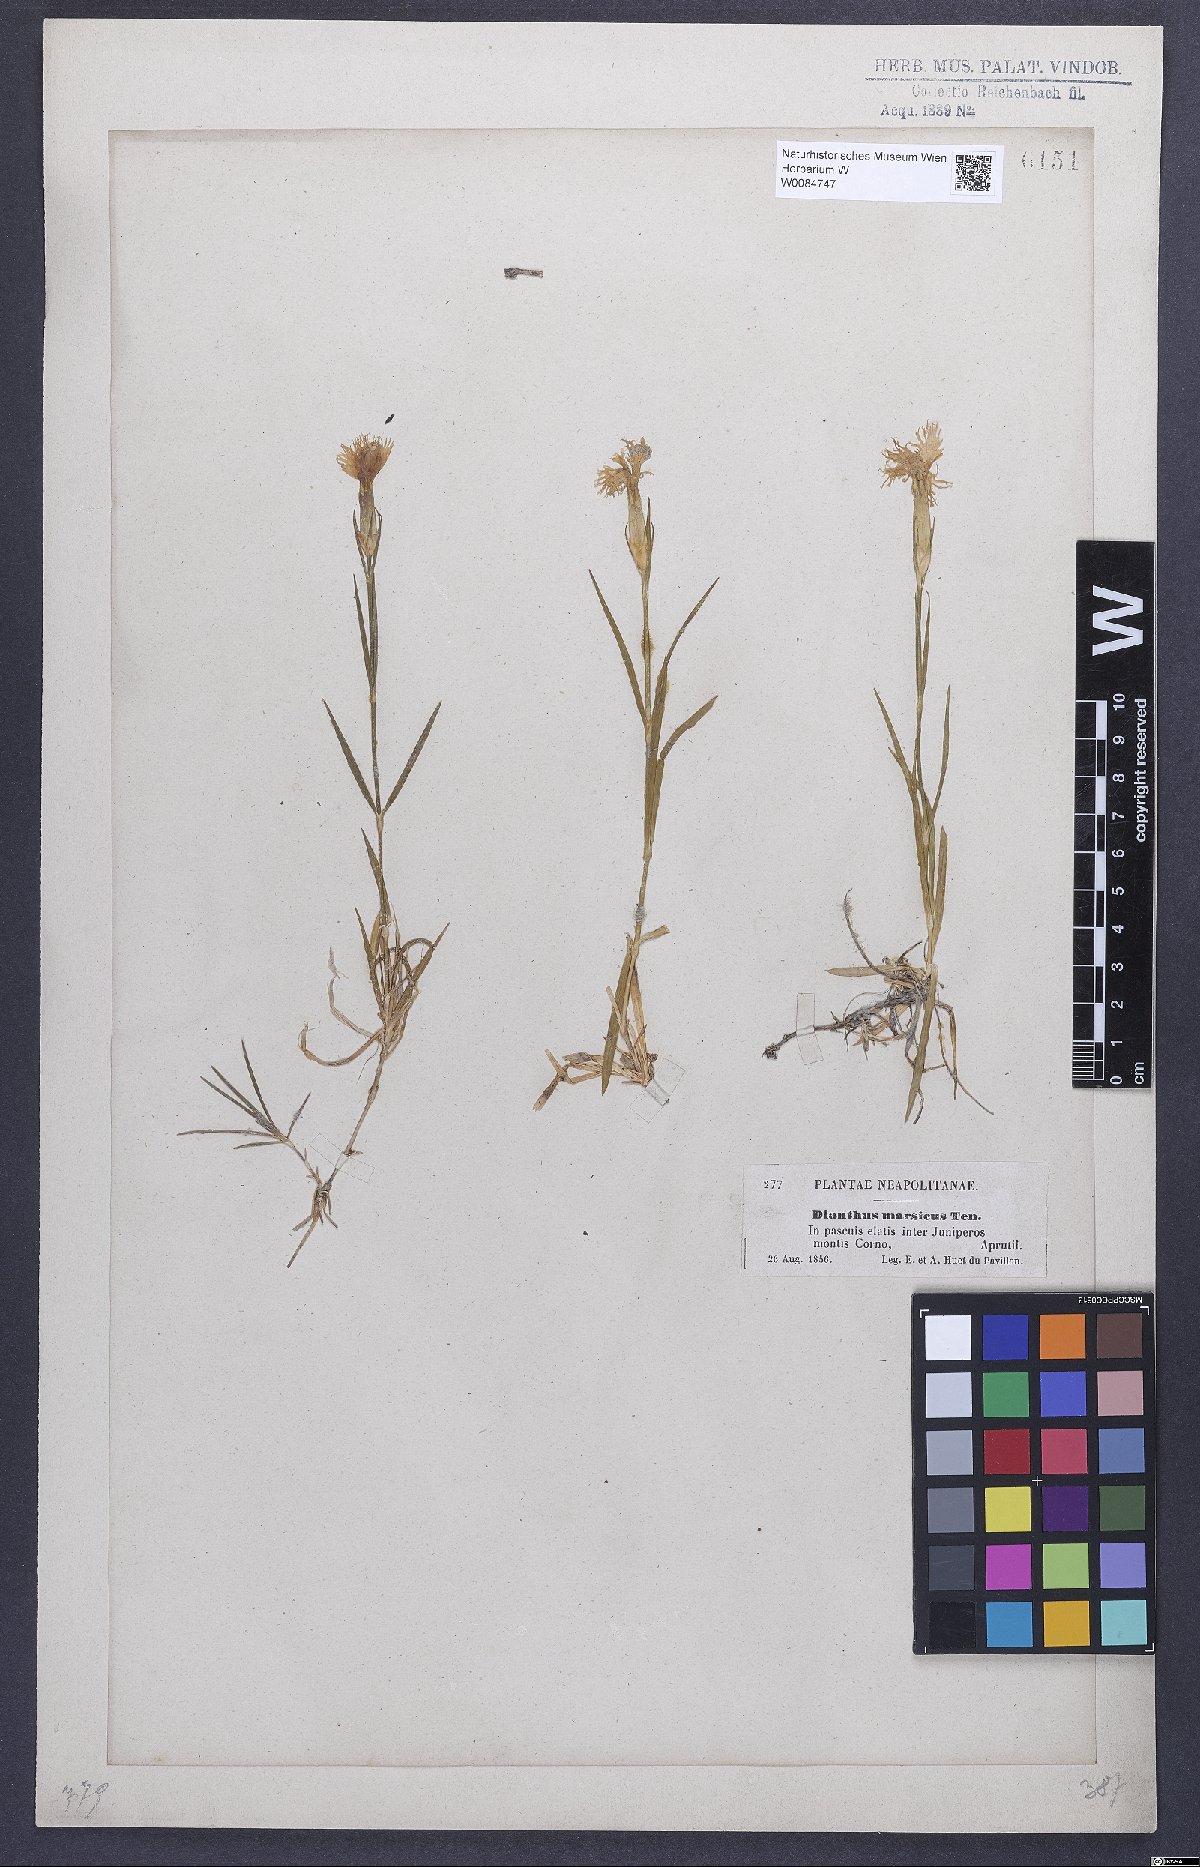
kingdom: Plantae
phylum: Tracheophyta
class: Magnoliopsida
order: Caryophyllales
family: Caryophyllaceae
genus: Dianthus
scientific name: Dianthus hyssopifolius
